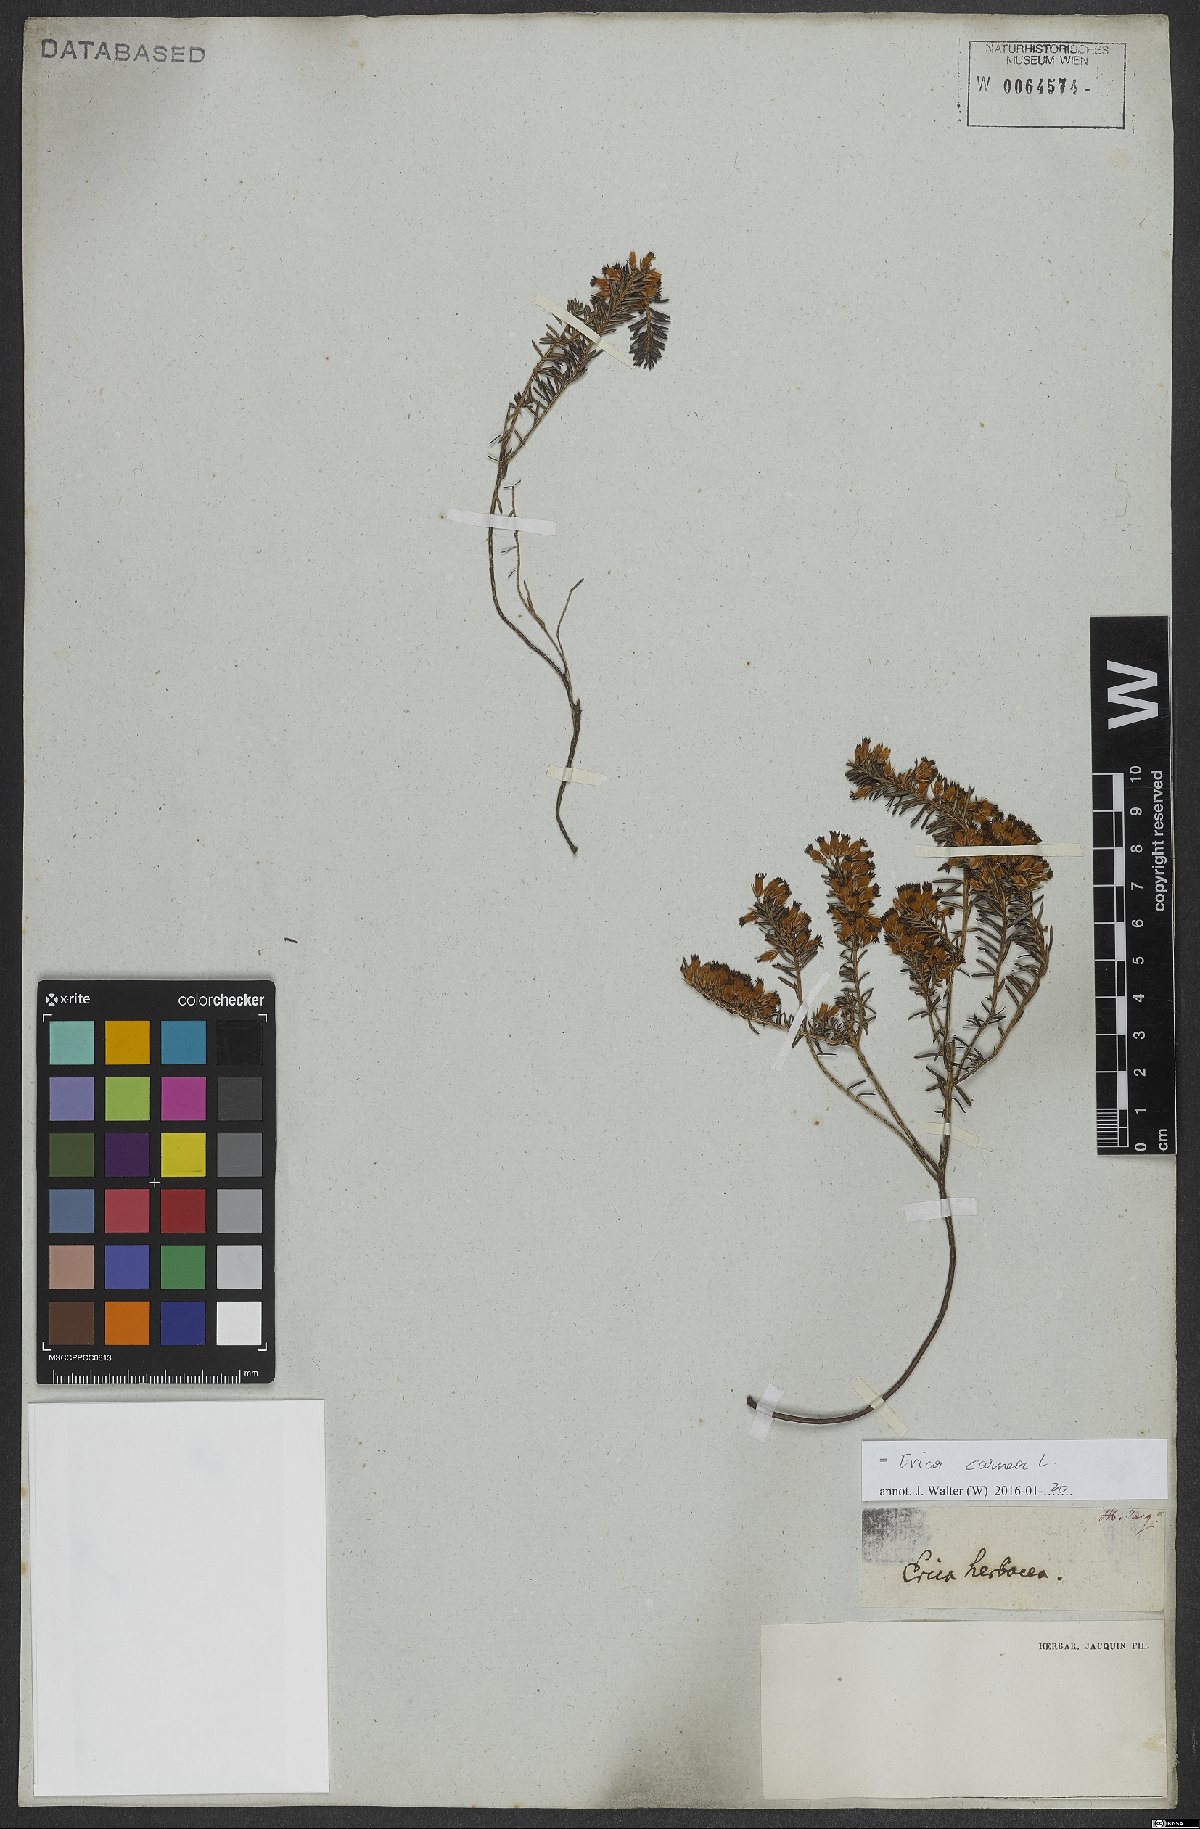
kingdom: Plantae
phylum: Tracheophyta
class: Magnoliopsida
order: Ericales
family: Ericaceae
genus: Erica
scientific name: Erica carnea
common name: Winter heath
